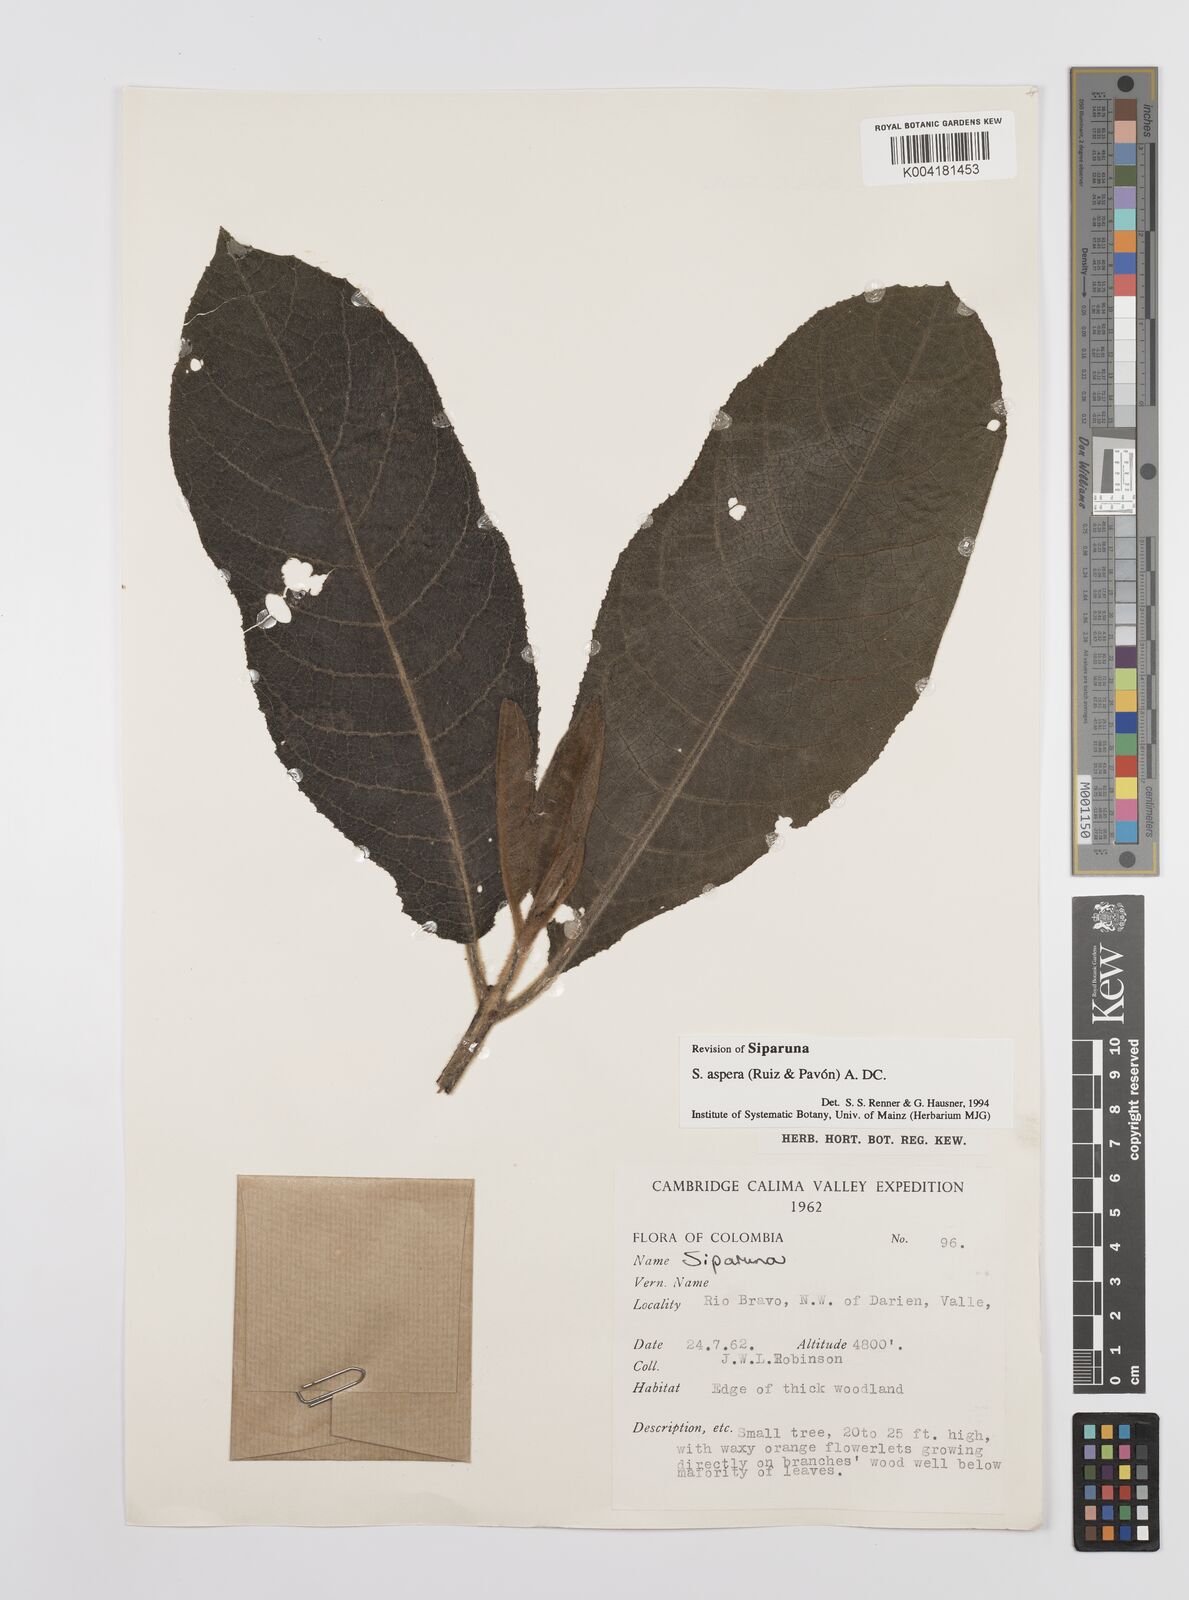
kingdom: Plantae
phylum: Tracheophyta
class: Magnoliopsida
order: Laurales
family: Siparunaceae
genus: Siparuna
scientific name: Siparuna aspera
